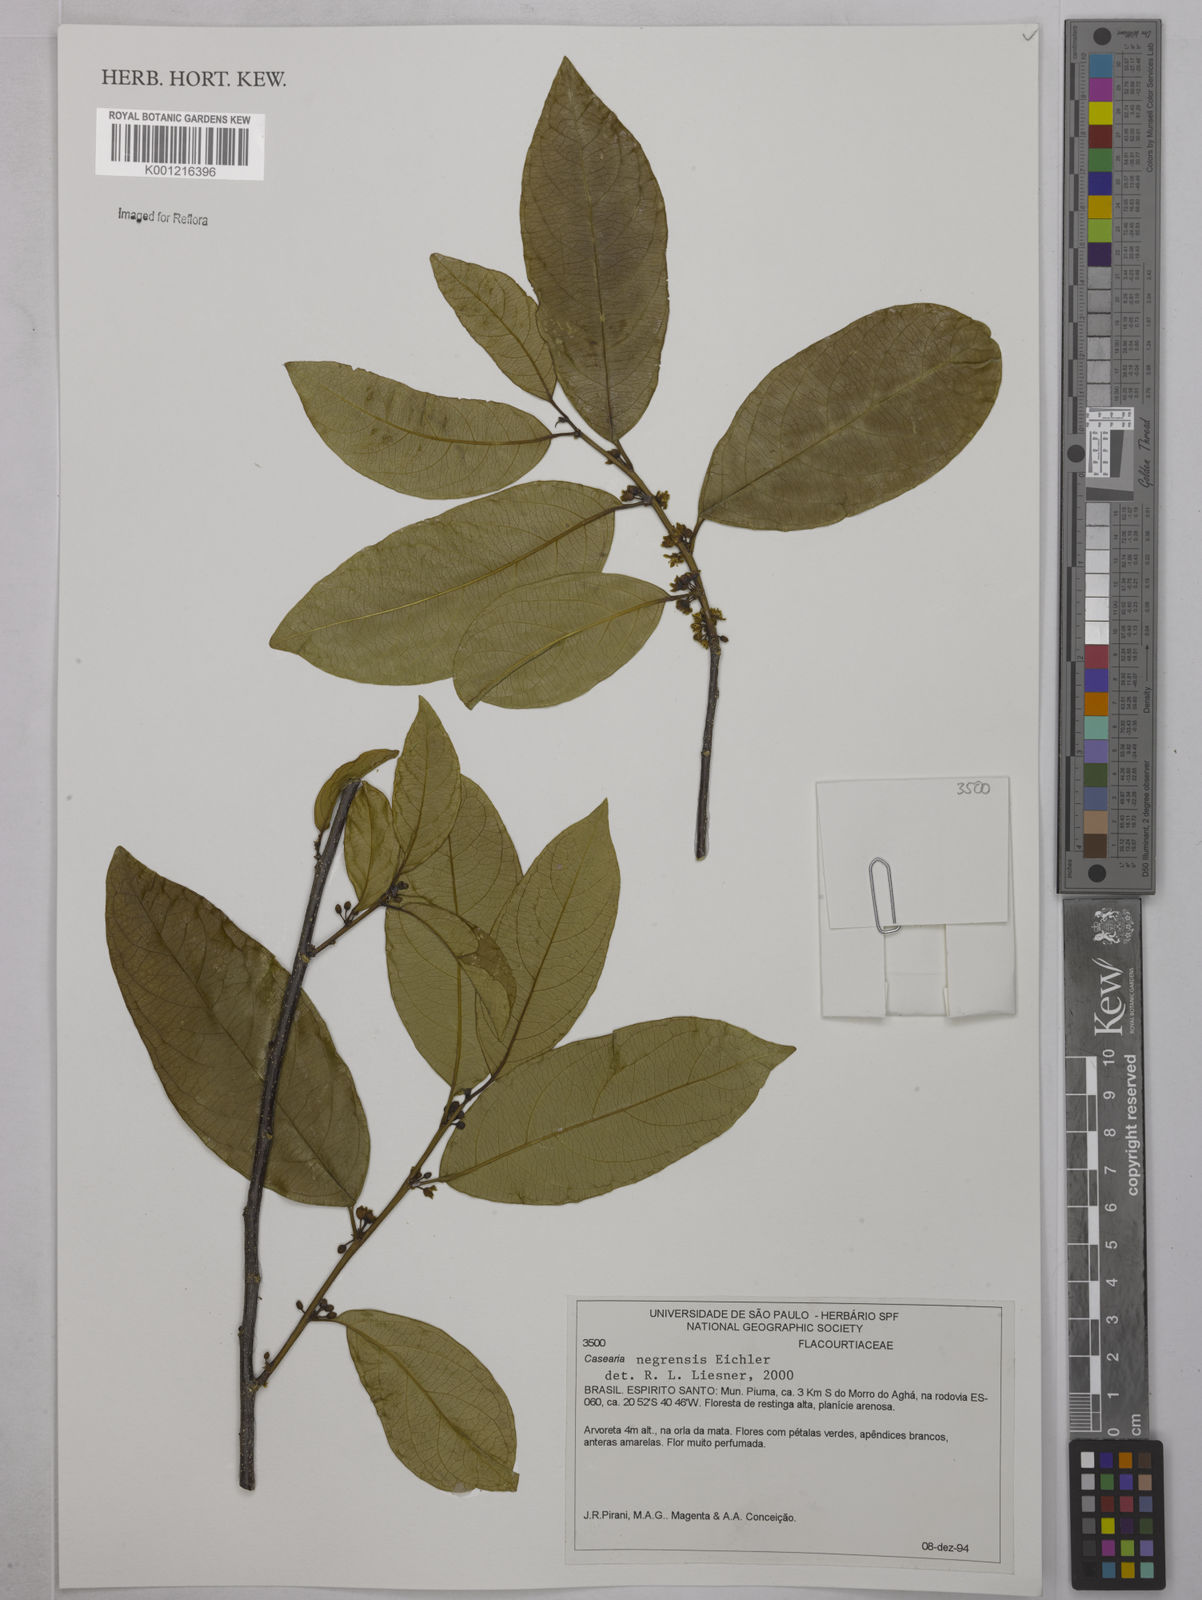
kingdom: Plantae
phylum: Tracheophyta
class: Magnoliopsida
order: Malpighiales
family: Salicaceae
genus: Casearia
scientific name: Casearia negrensis
